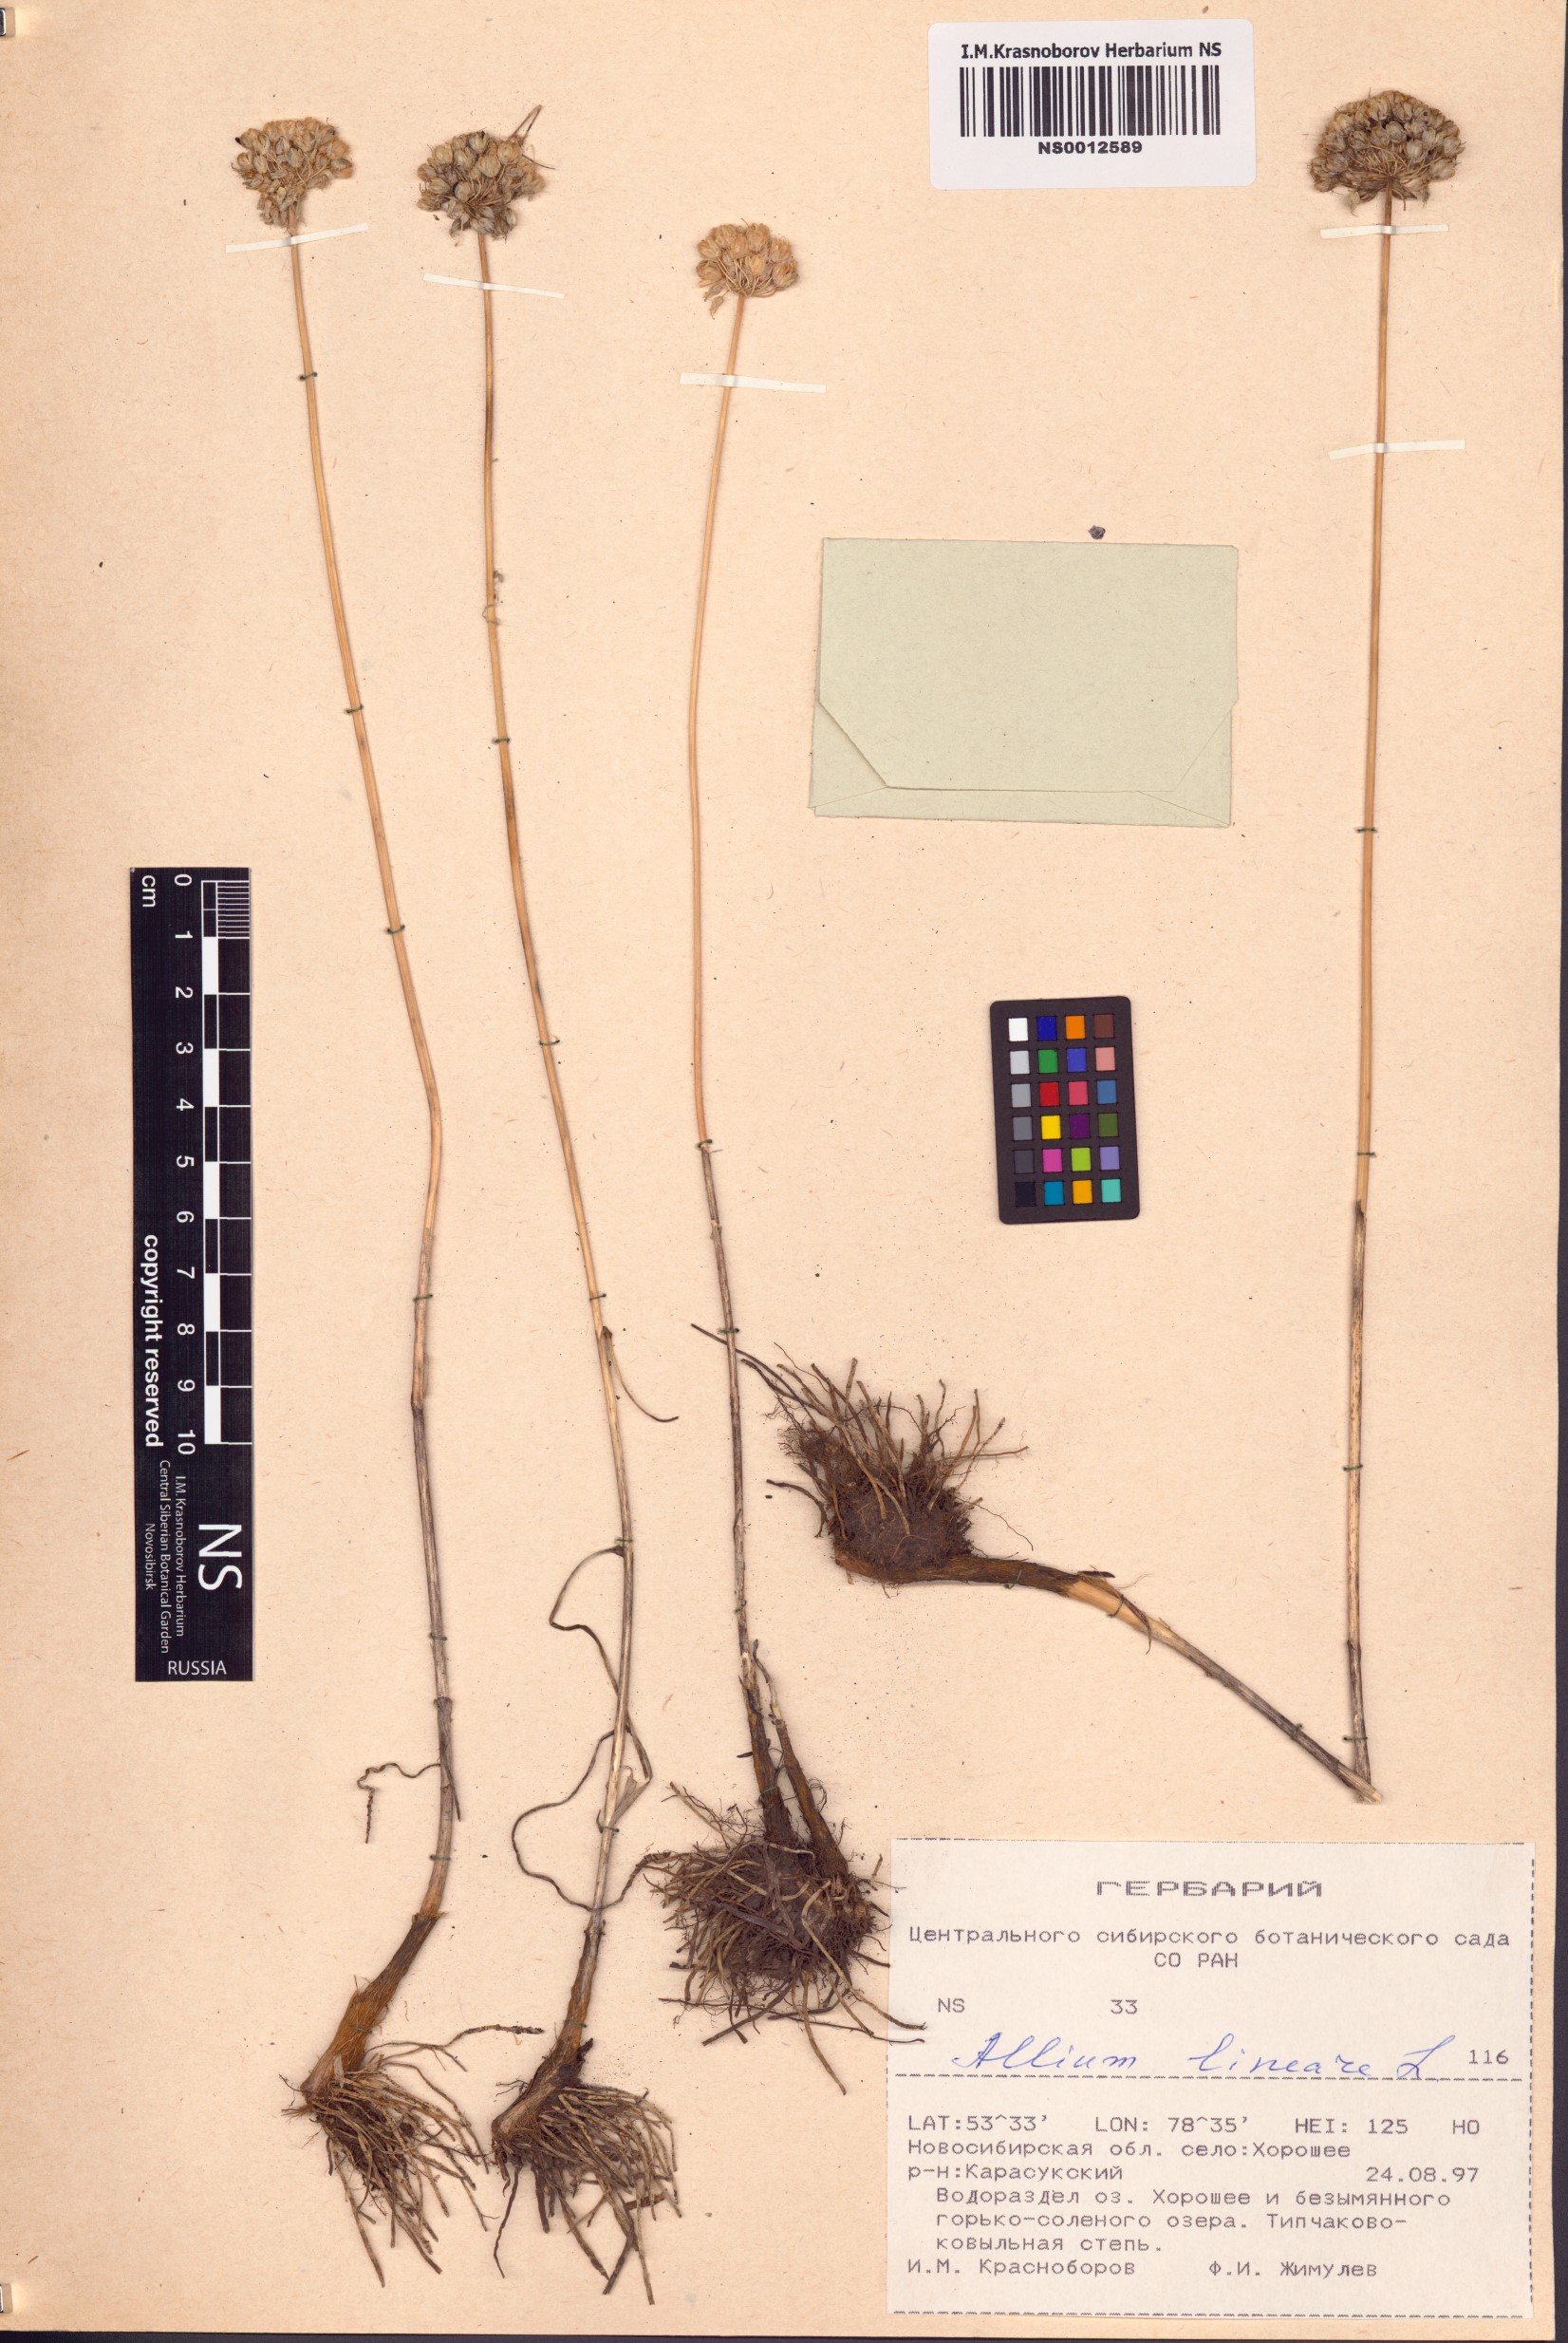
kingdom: Plantae
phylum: Tracheophyta
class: Liliopsida
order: Asparagales
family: Amaryllidaceae
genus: Allium
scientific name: Allium lineare
